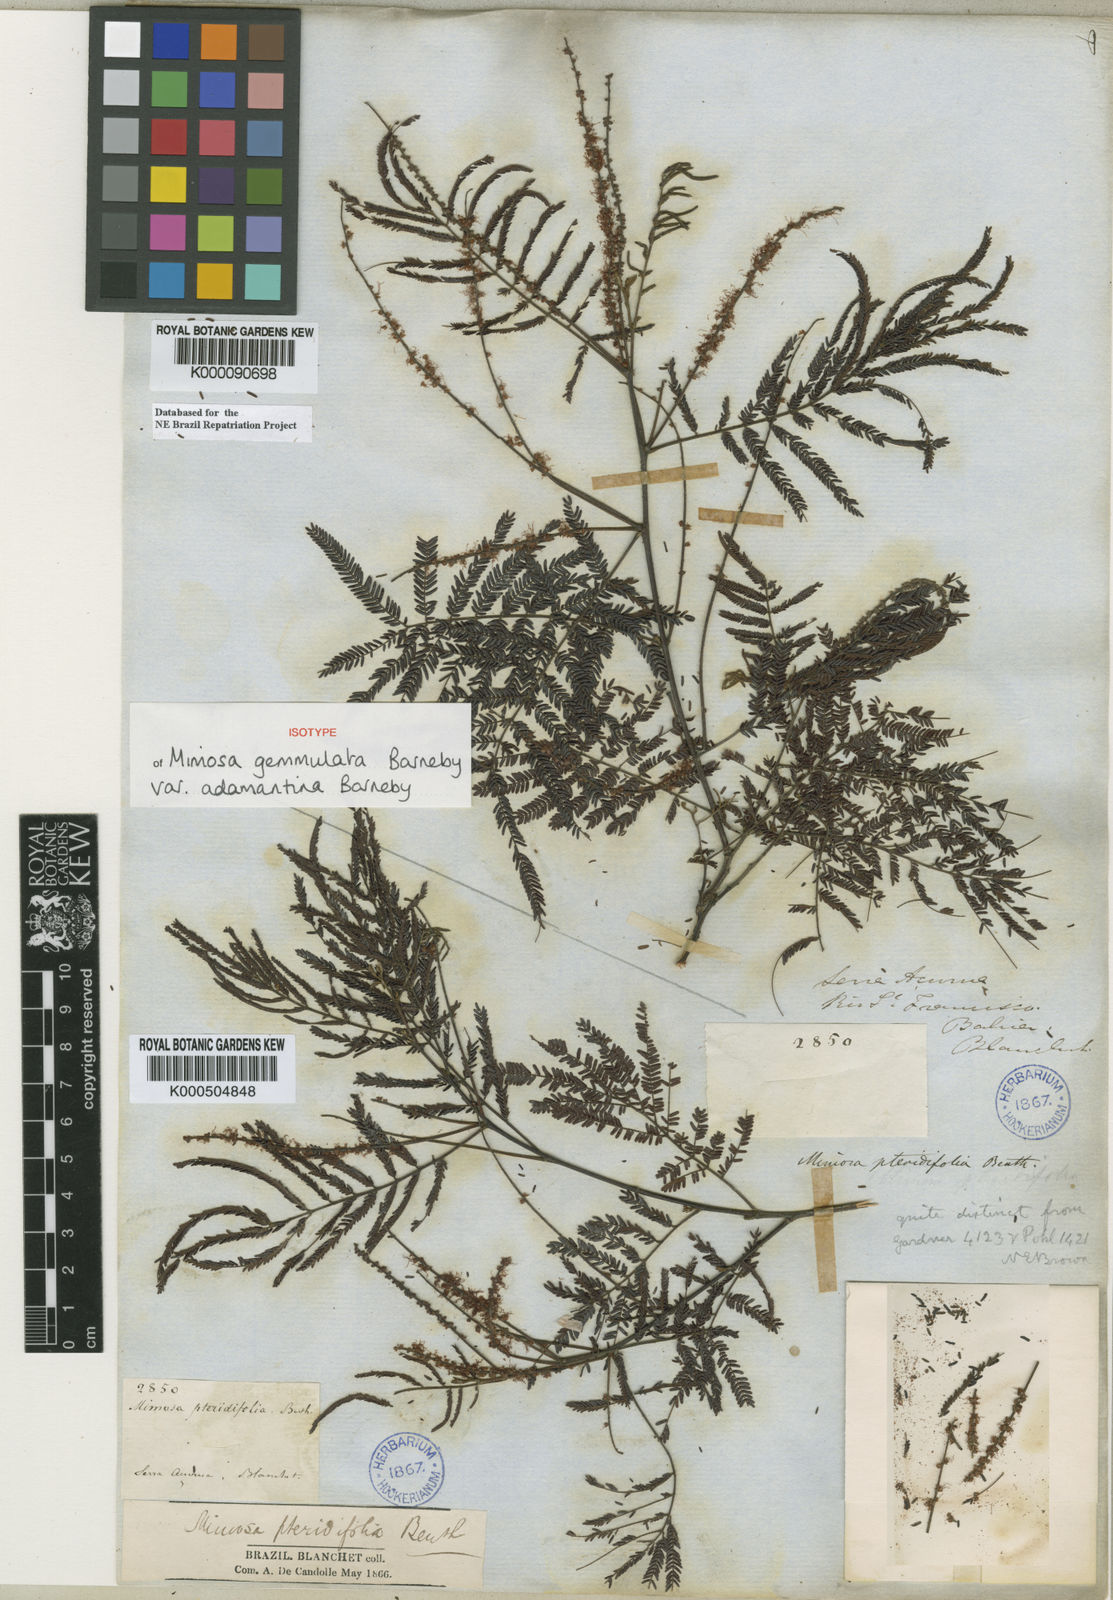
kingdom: Plantae
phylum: Tracheophyta
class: Magnoliopsida
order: Fabales
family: Fabaceae
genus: Mimosa
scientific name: Mimosa gemmulata
